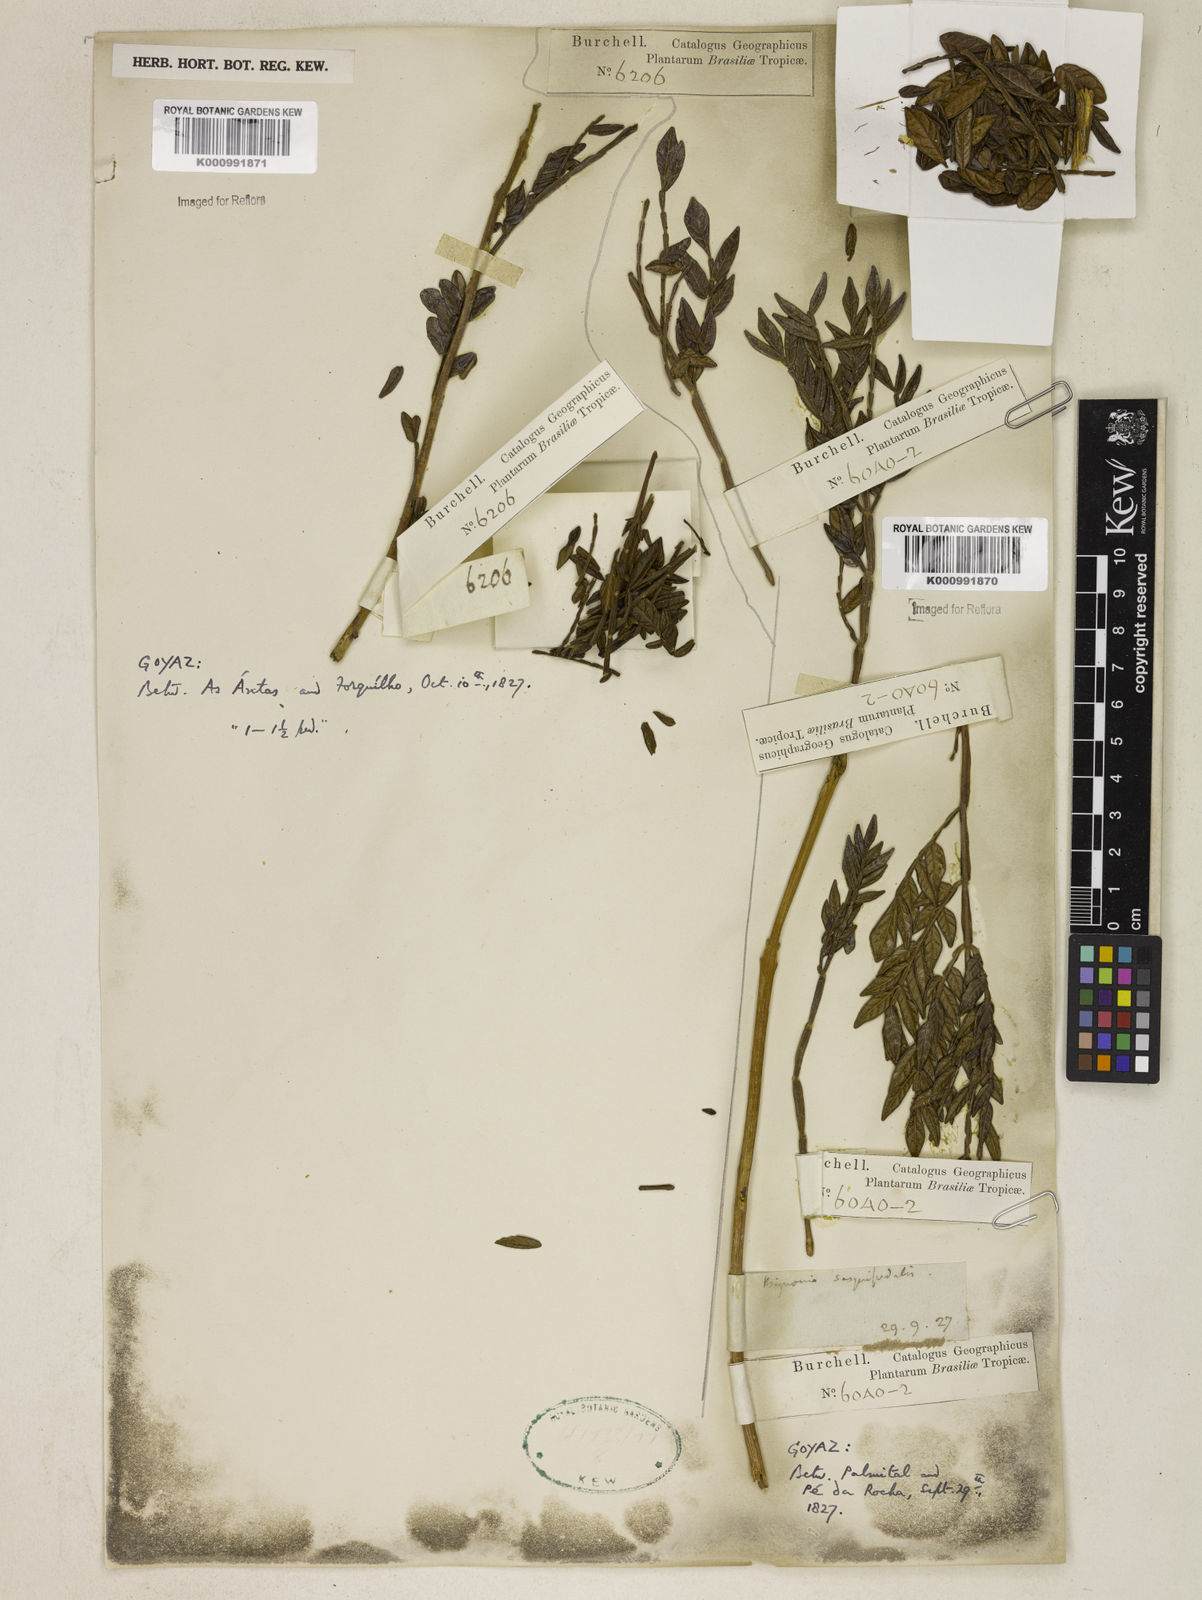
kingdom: Plantae
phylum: Tracheophyta
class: Magnoliopsida
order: Lamiales
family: Bignoniaceae
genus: Jacaranda
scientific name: Jacaranda
